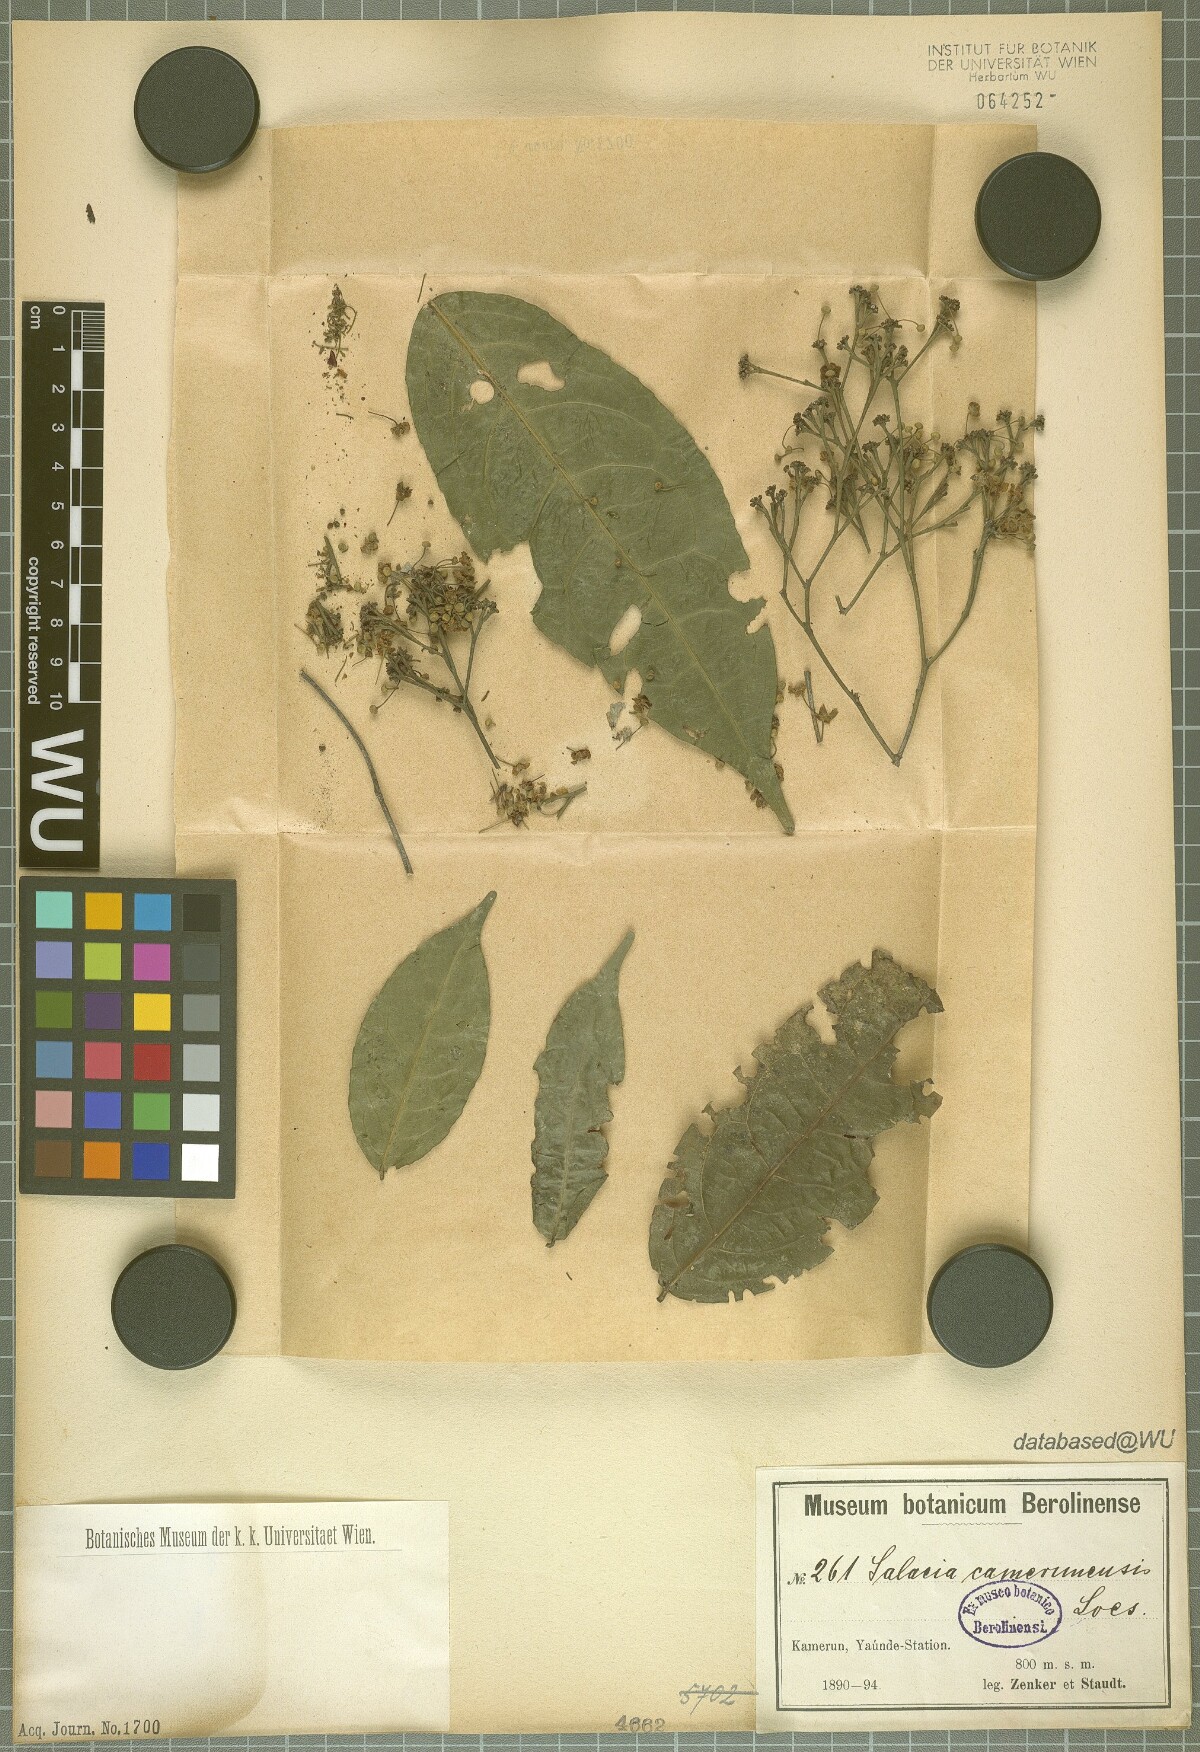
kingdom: Plantae
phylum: Tracheophyta
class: Magnoliopsida
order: Celastrales
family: Celastraceae
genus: Salacia
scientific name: Salacia longipes
